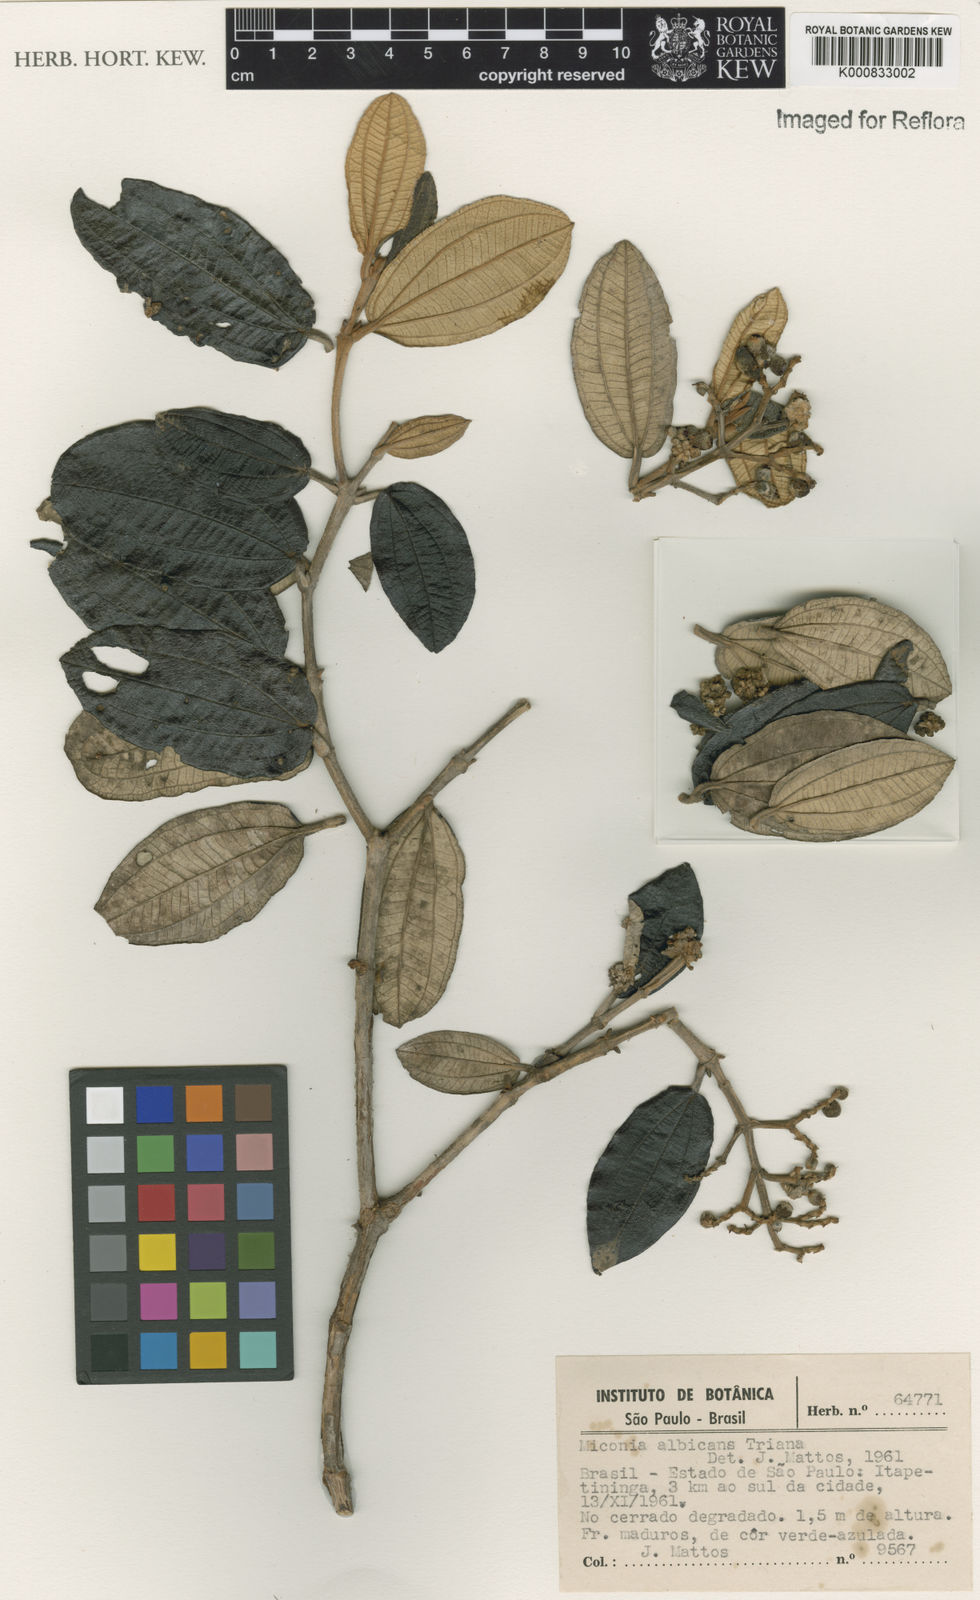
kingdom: Plantae
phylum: Tracheophyta
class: Magnoliopsida
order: Myrtales
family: Melastomataceae
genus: Miconia
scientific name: Miconia
